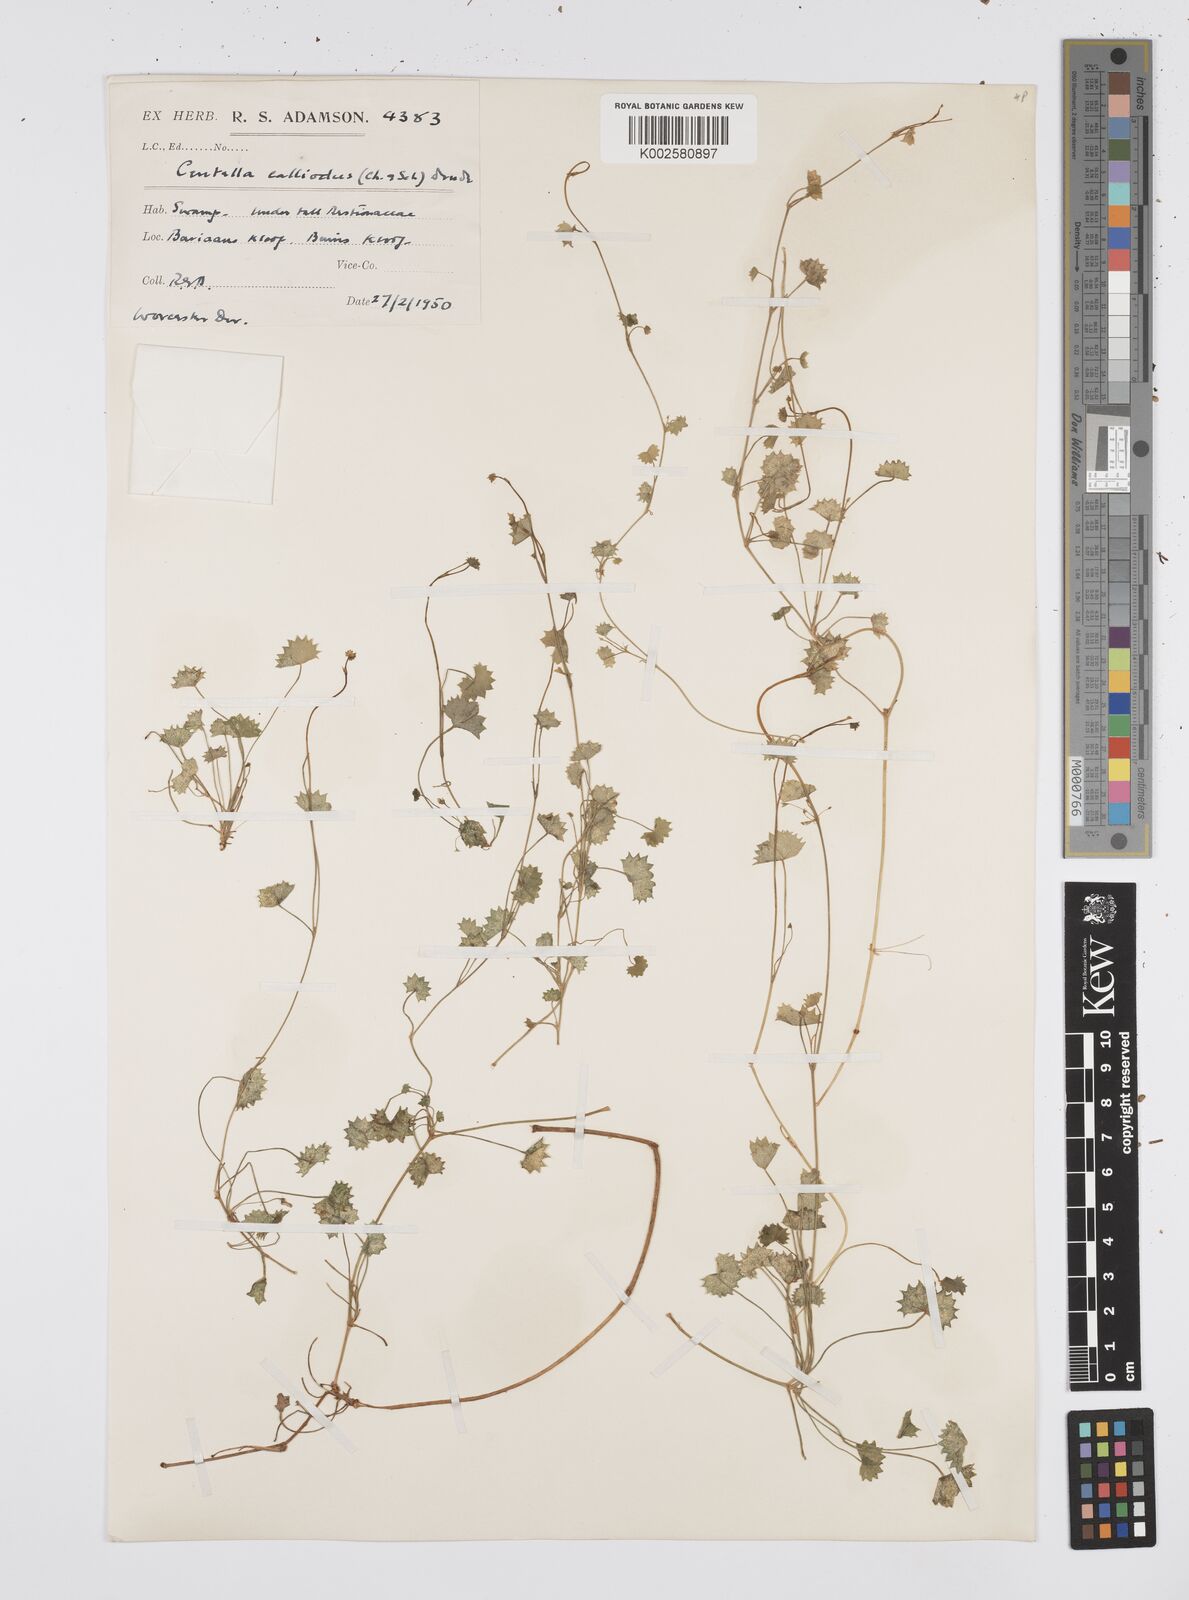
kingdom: Plantae
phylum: Tracheophyta
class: Magnoliopsida
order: Apiales
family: Apiaceae
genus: Centella
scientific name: Centella
